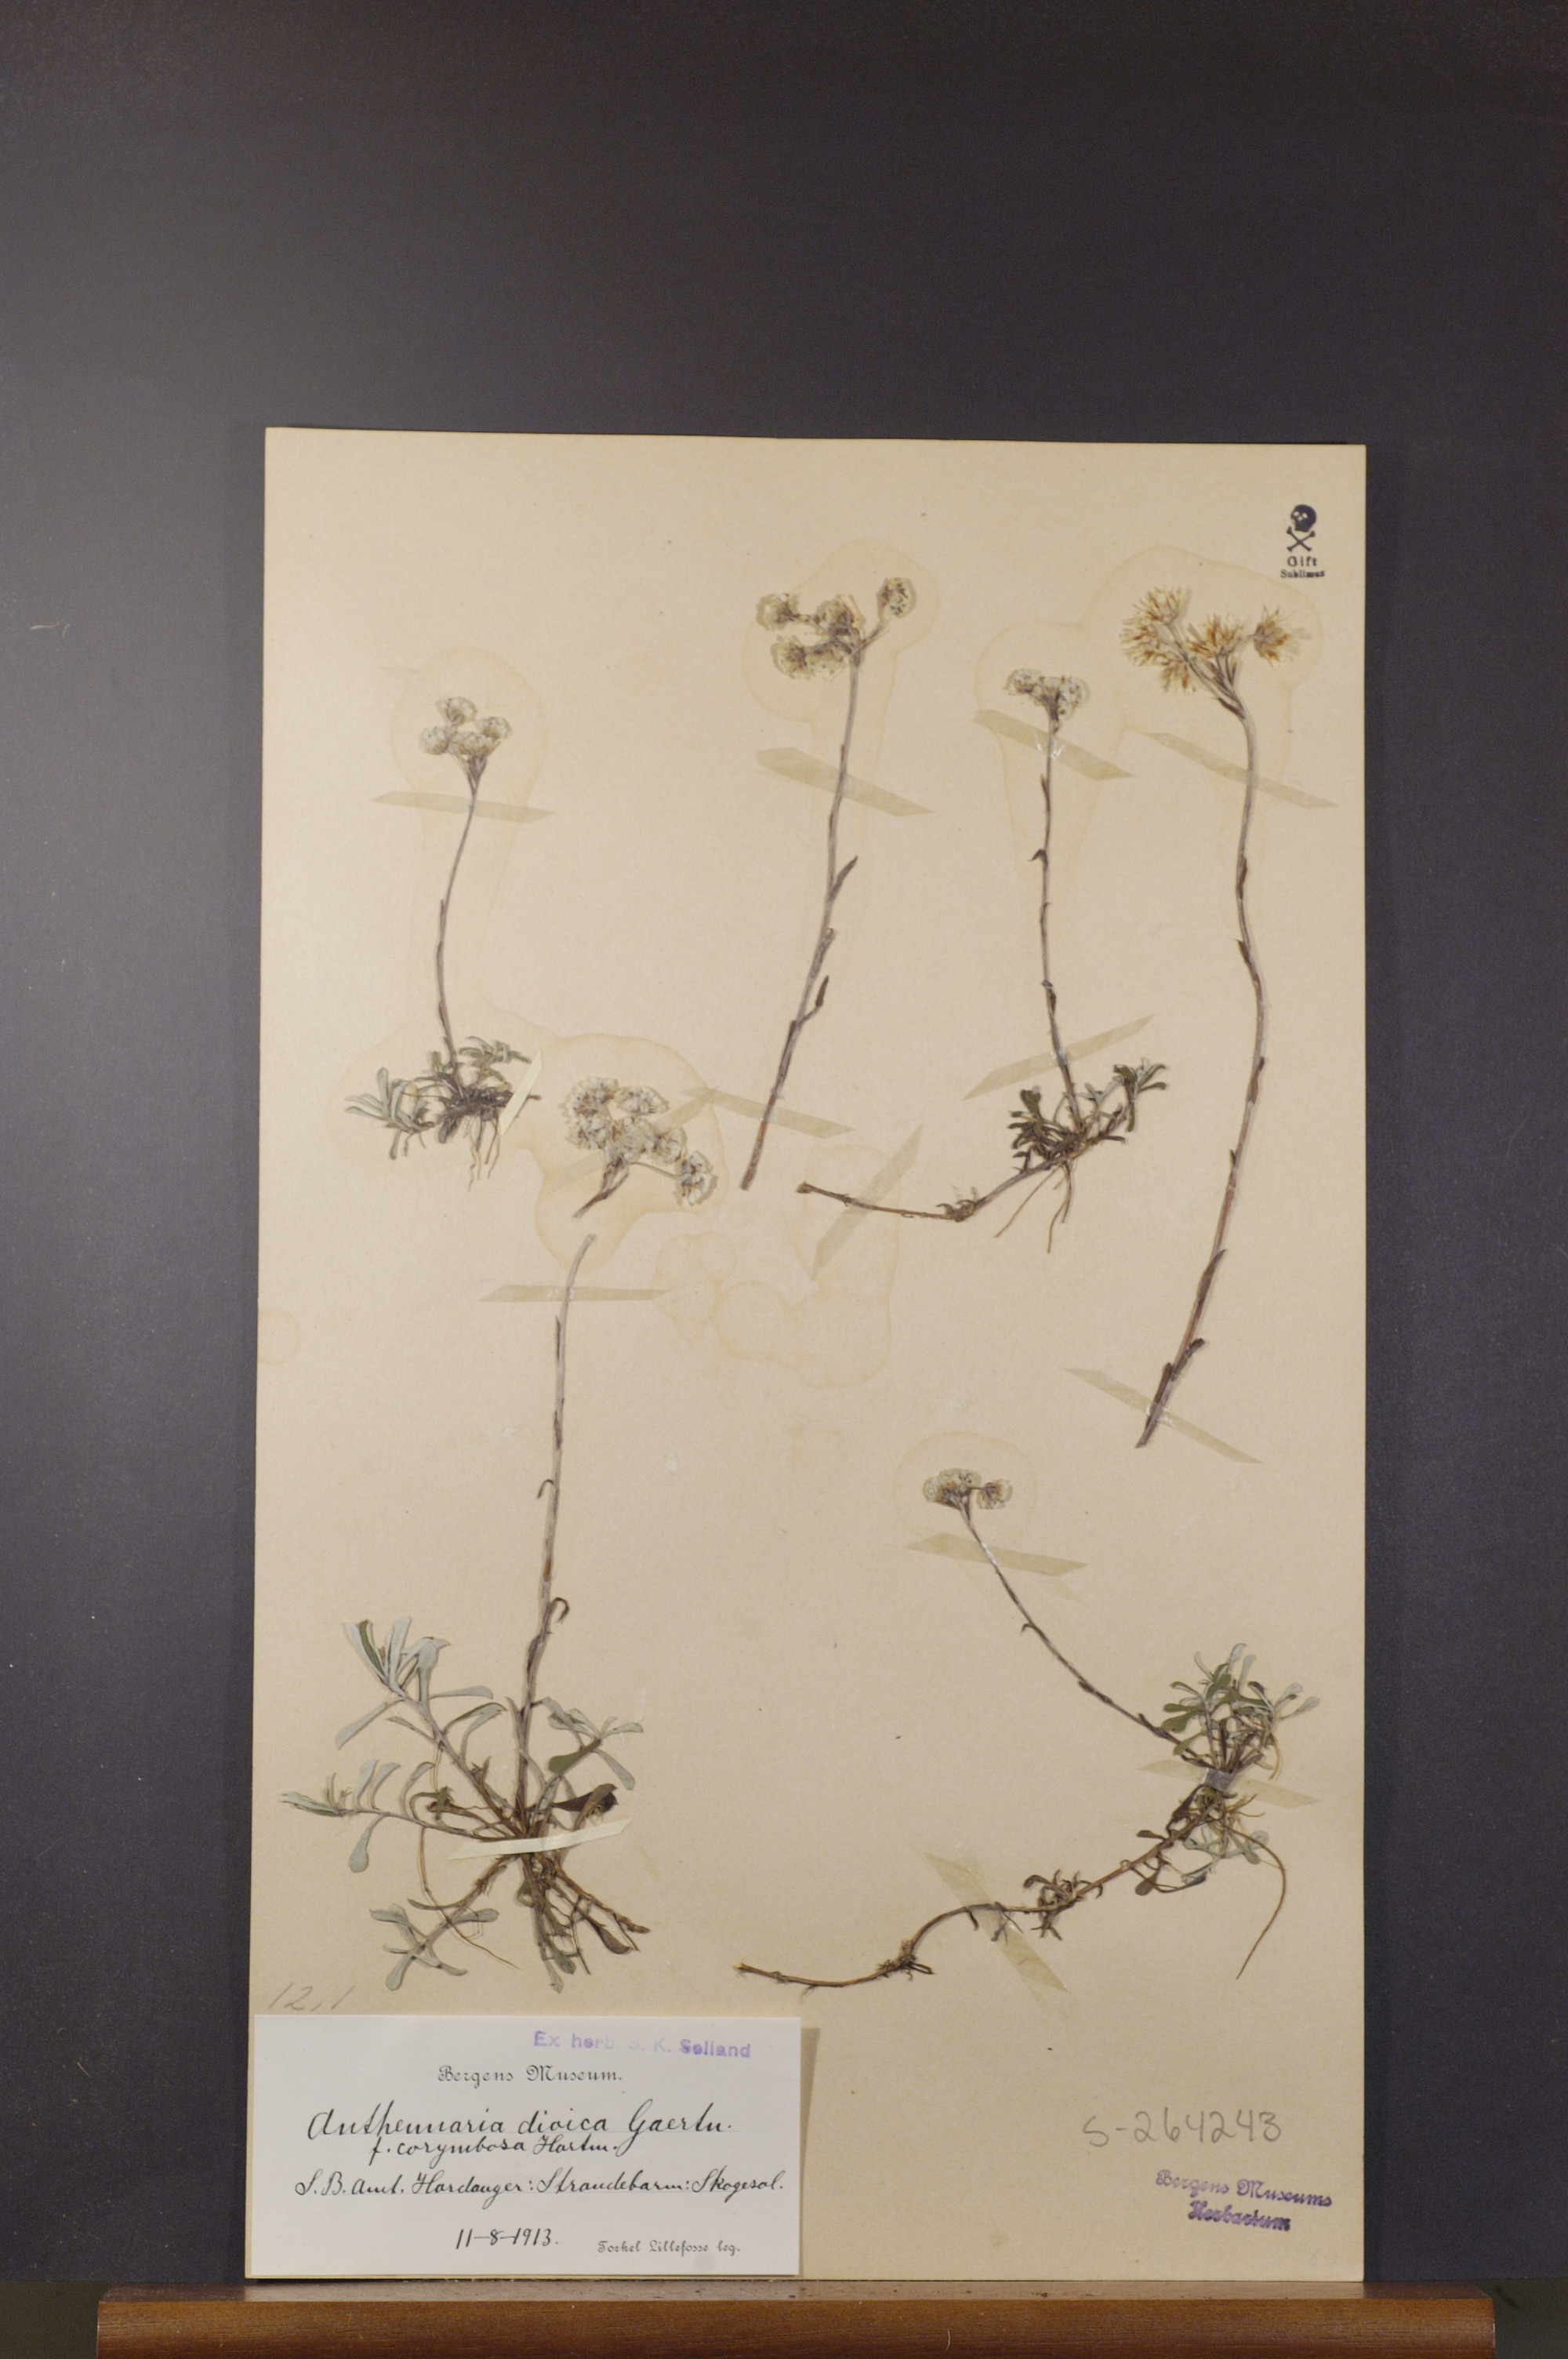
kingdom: Plantae
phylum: Tracheophyta
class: Magnoliopsida
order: Asterales
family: Asteraceae
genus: Antennaria
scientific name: Antennaria dioica
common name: Mountain everlasting
